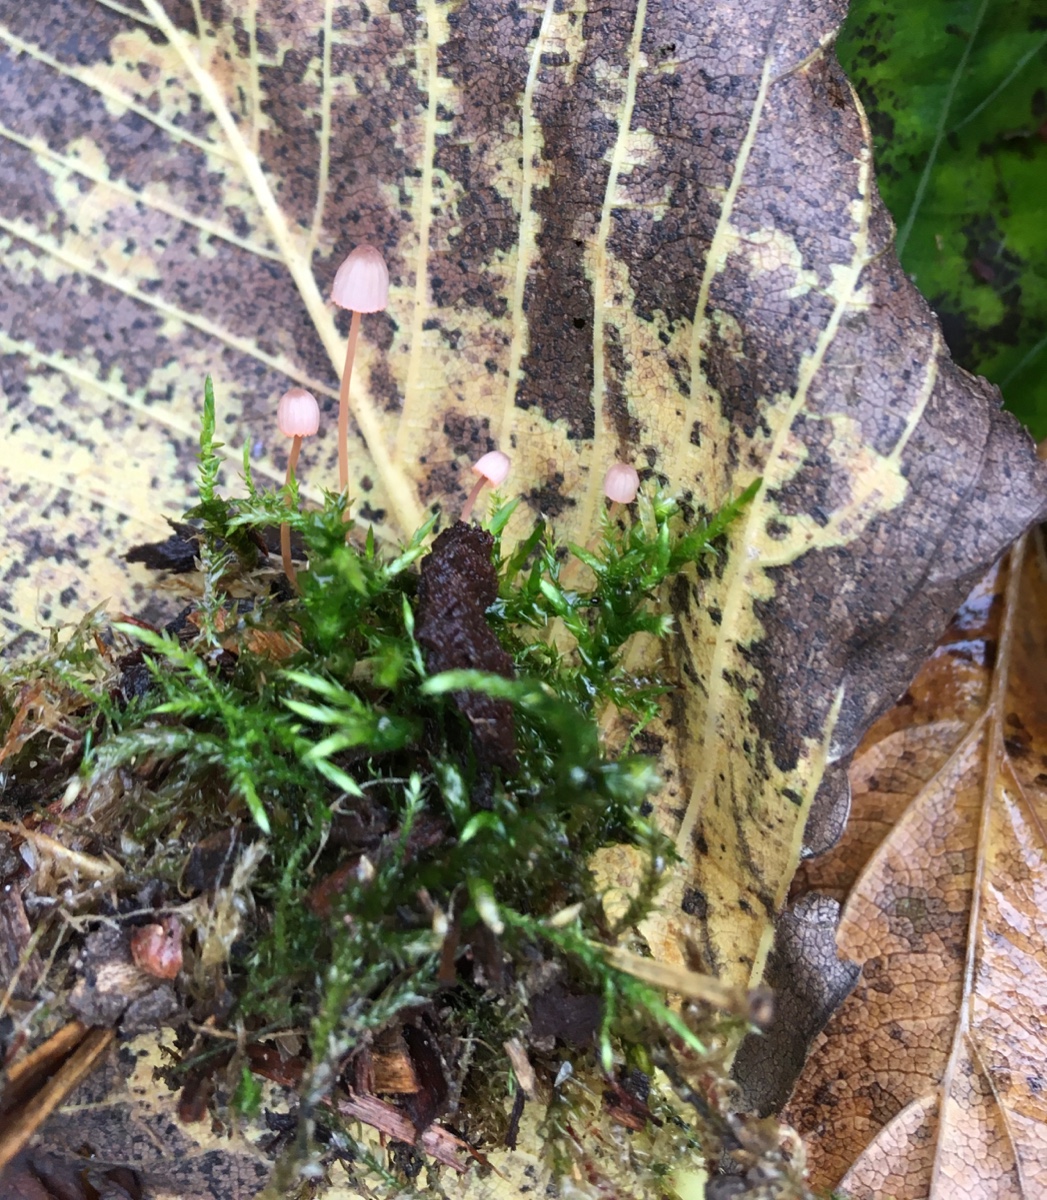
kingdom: Fungi
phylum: Basidiomycota
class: Agaricomycetes
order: Agaricales
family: Mycenaceae
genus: Mycena
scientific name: Mycena pterigena
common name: bregne-huesvamp
